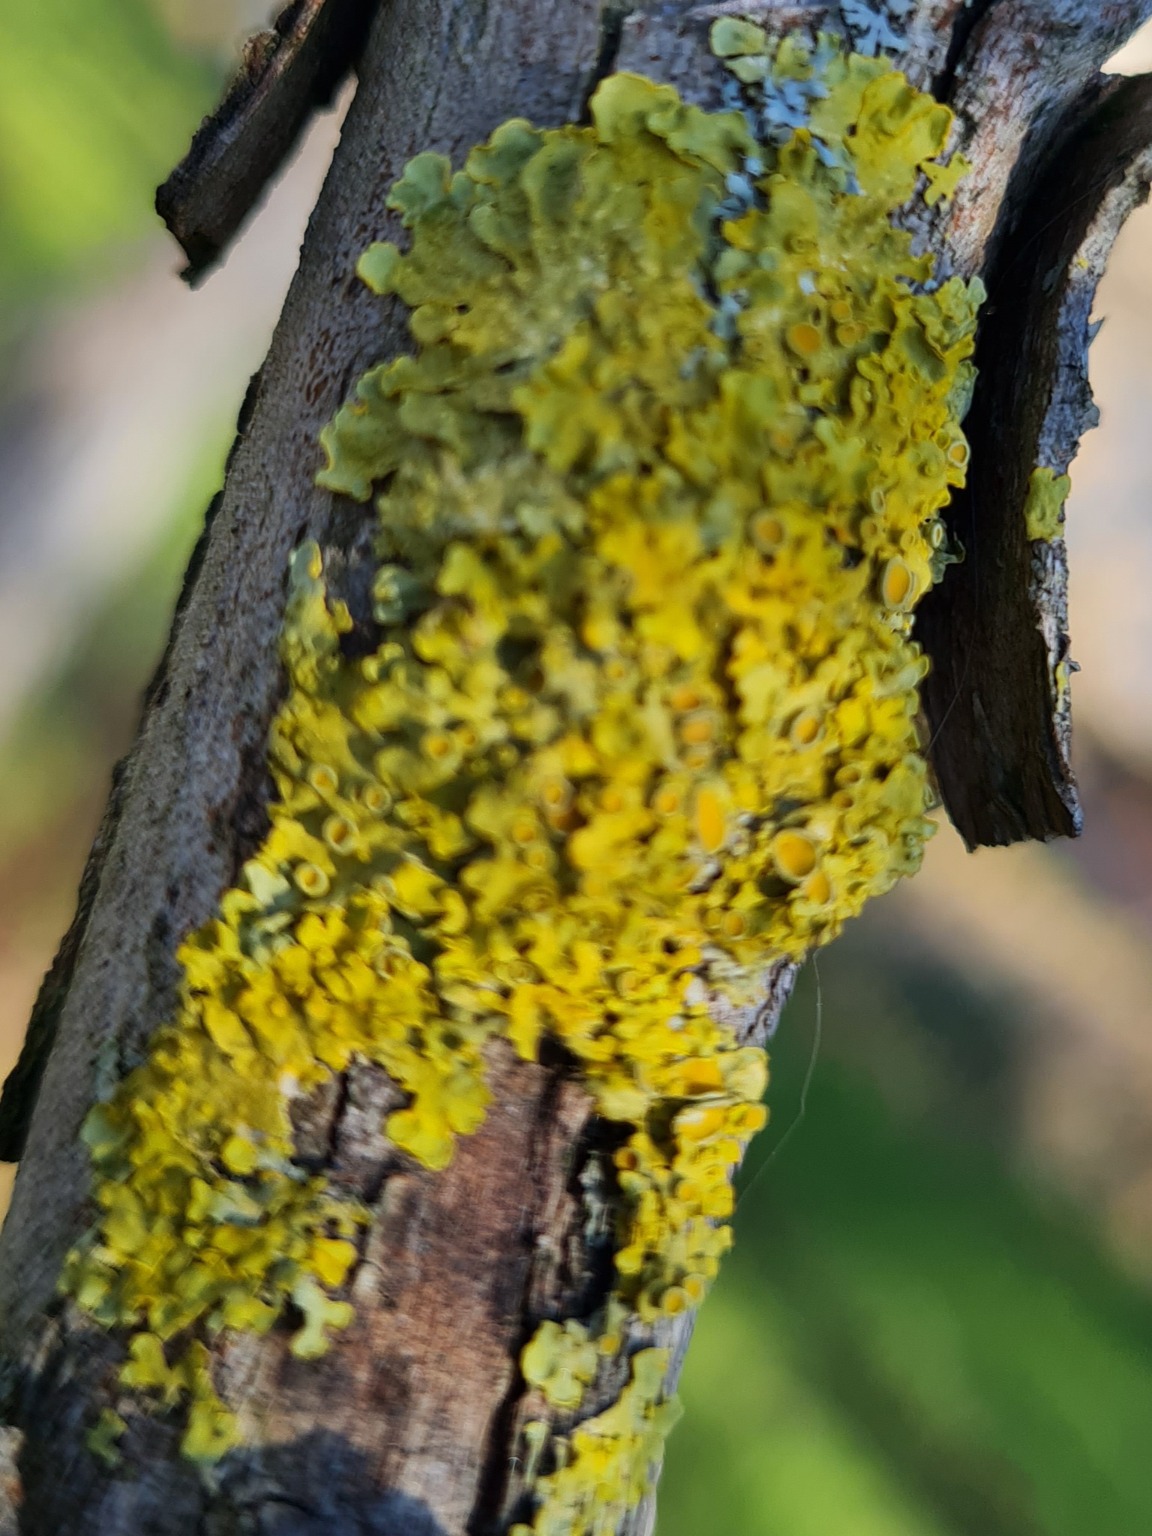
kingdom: Fungi
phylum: Ascomycota
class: Lecanoromycetes
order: Teloschistales
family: Teloschistaceae
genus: Xanthoria
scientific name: Xanthoria parietina
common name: Almindelig væggelav
